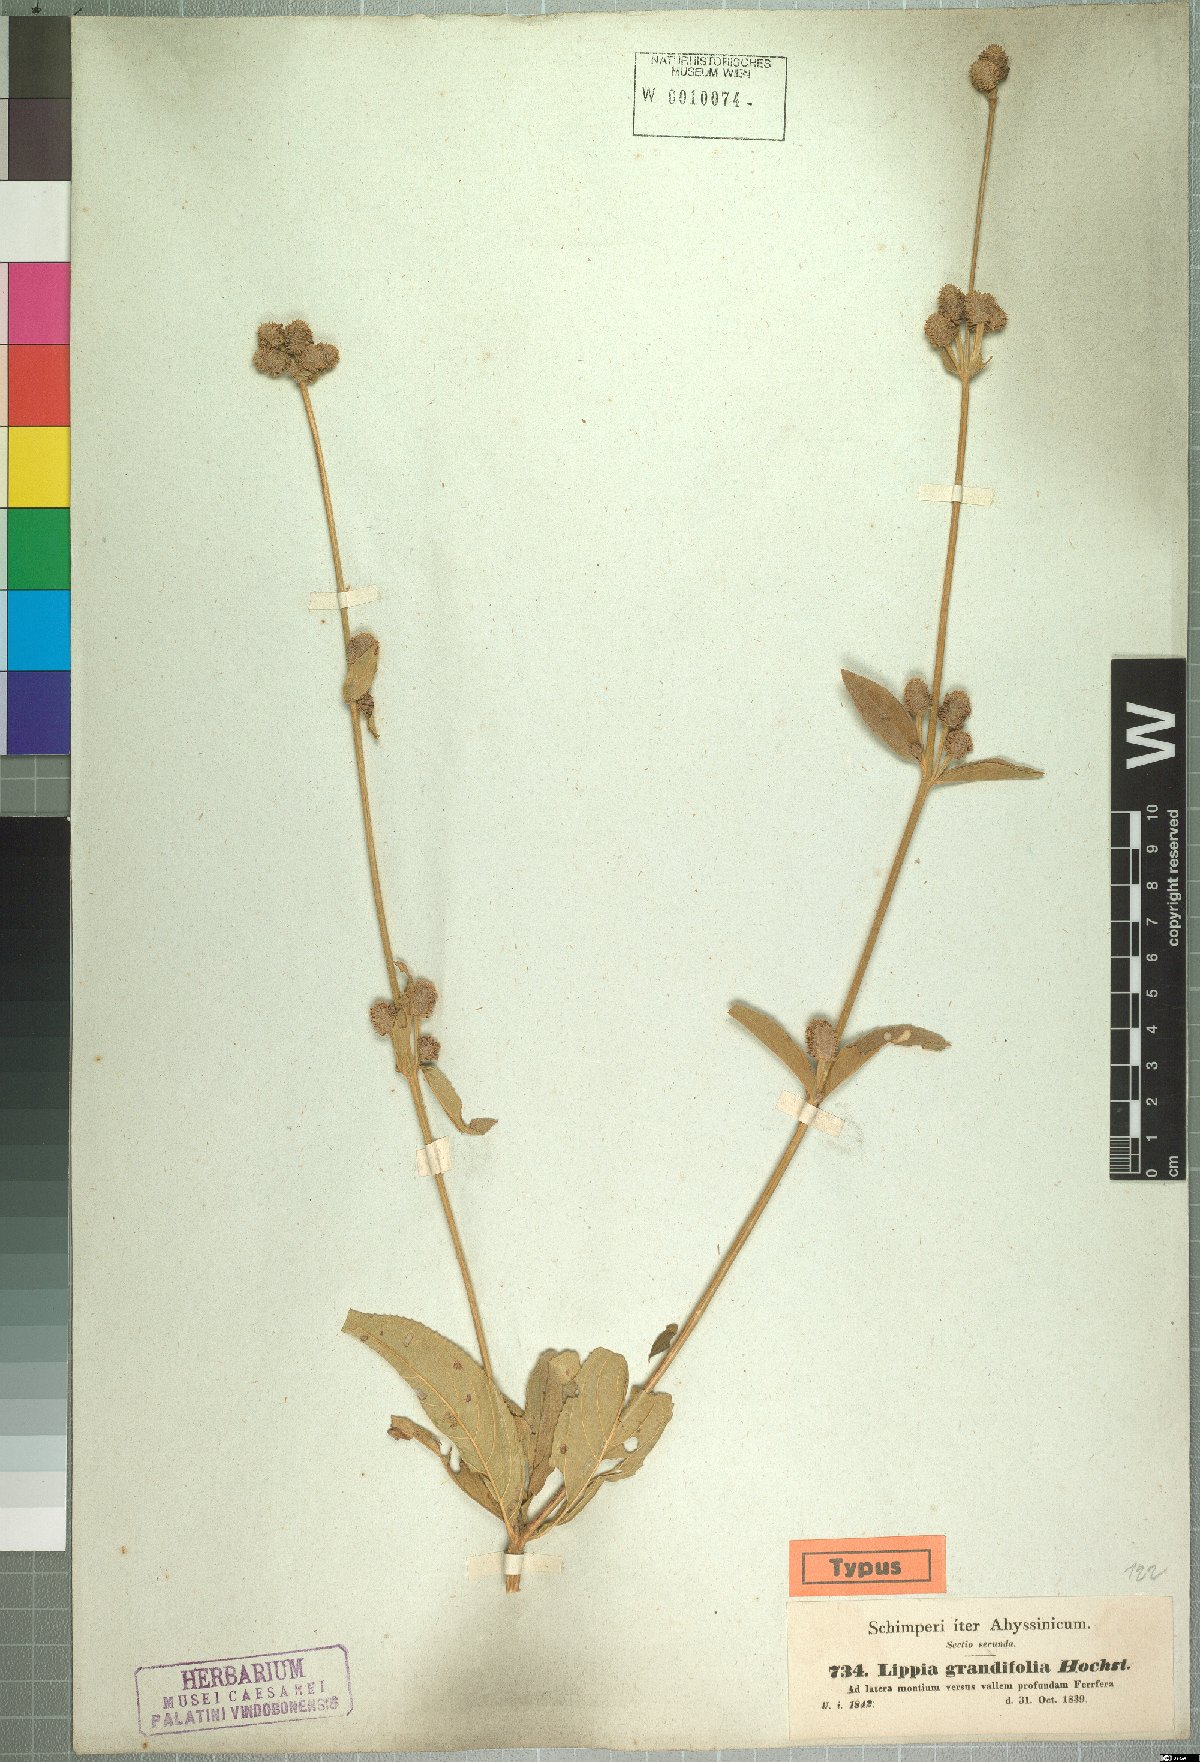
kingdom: Plantae
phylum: Tracheophyta
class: Magnoliopsida
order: Lamiales
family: Verbenaceae
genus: Lippia
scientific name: Lippia abyssinica
